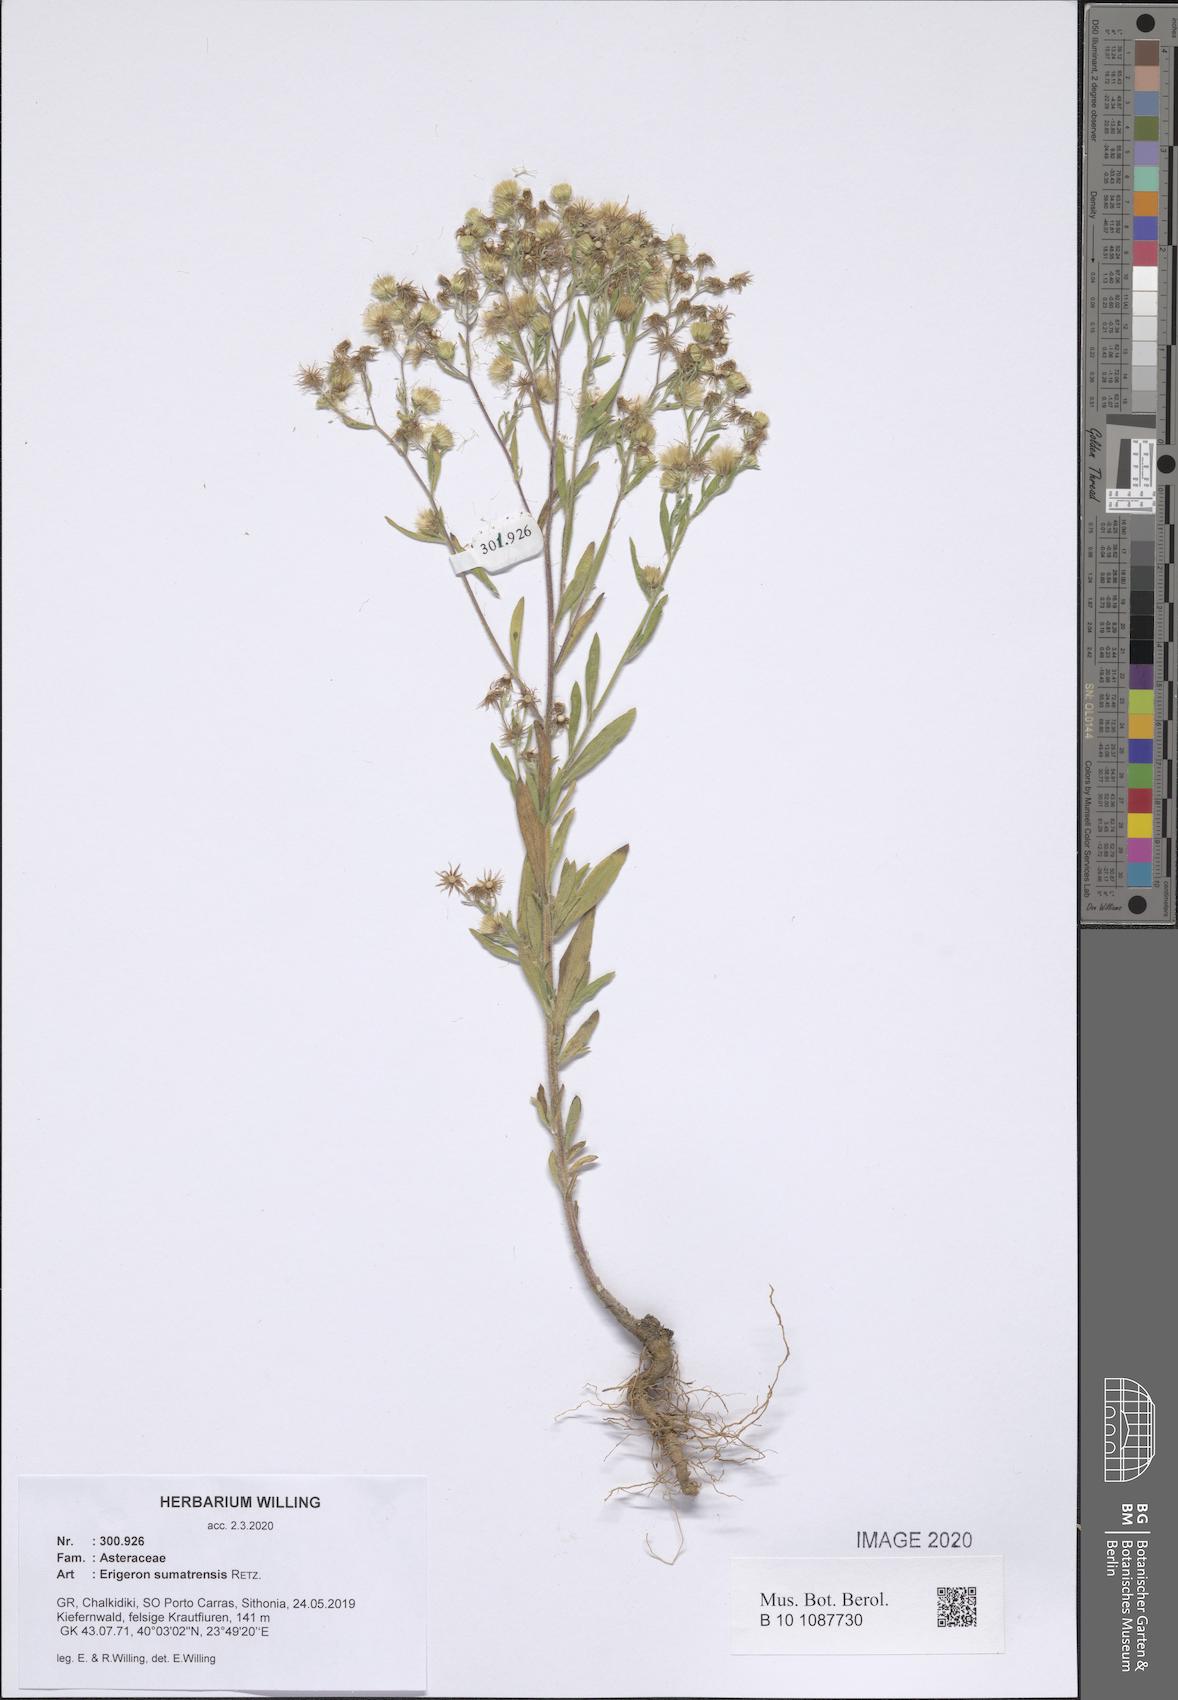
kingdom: Plantae
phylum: Tracheophyta
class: Magnoliopsida
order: Asterales
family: Asteraceae
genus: Erigeron
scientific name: Erigeron sumatrensis
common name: Daisy
